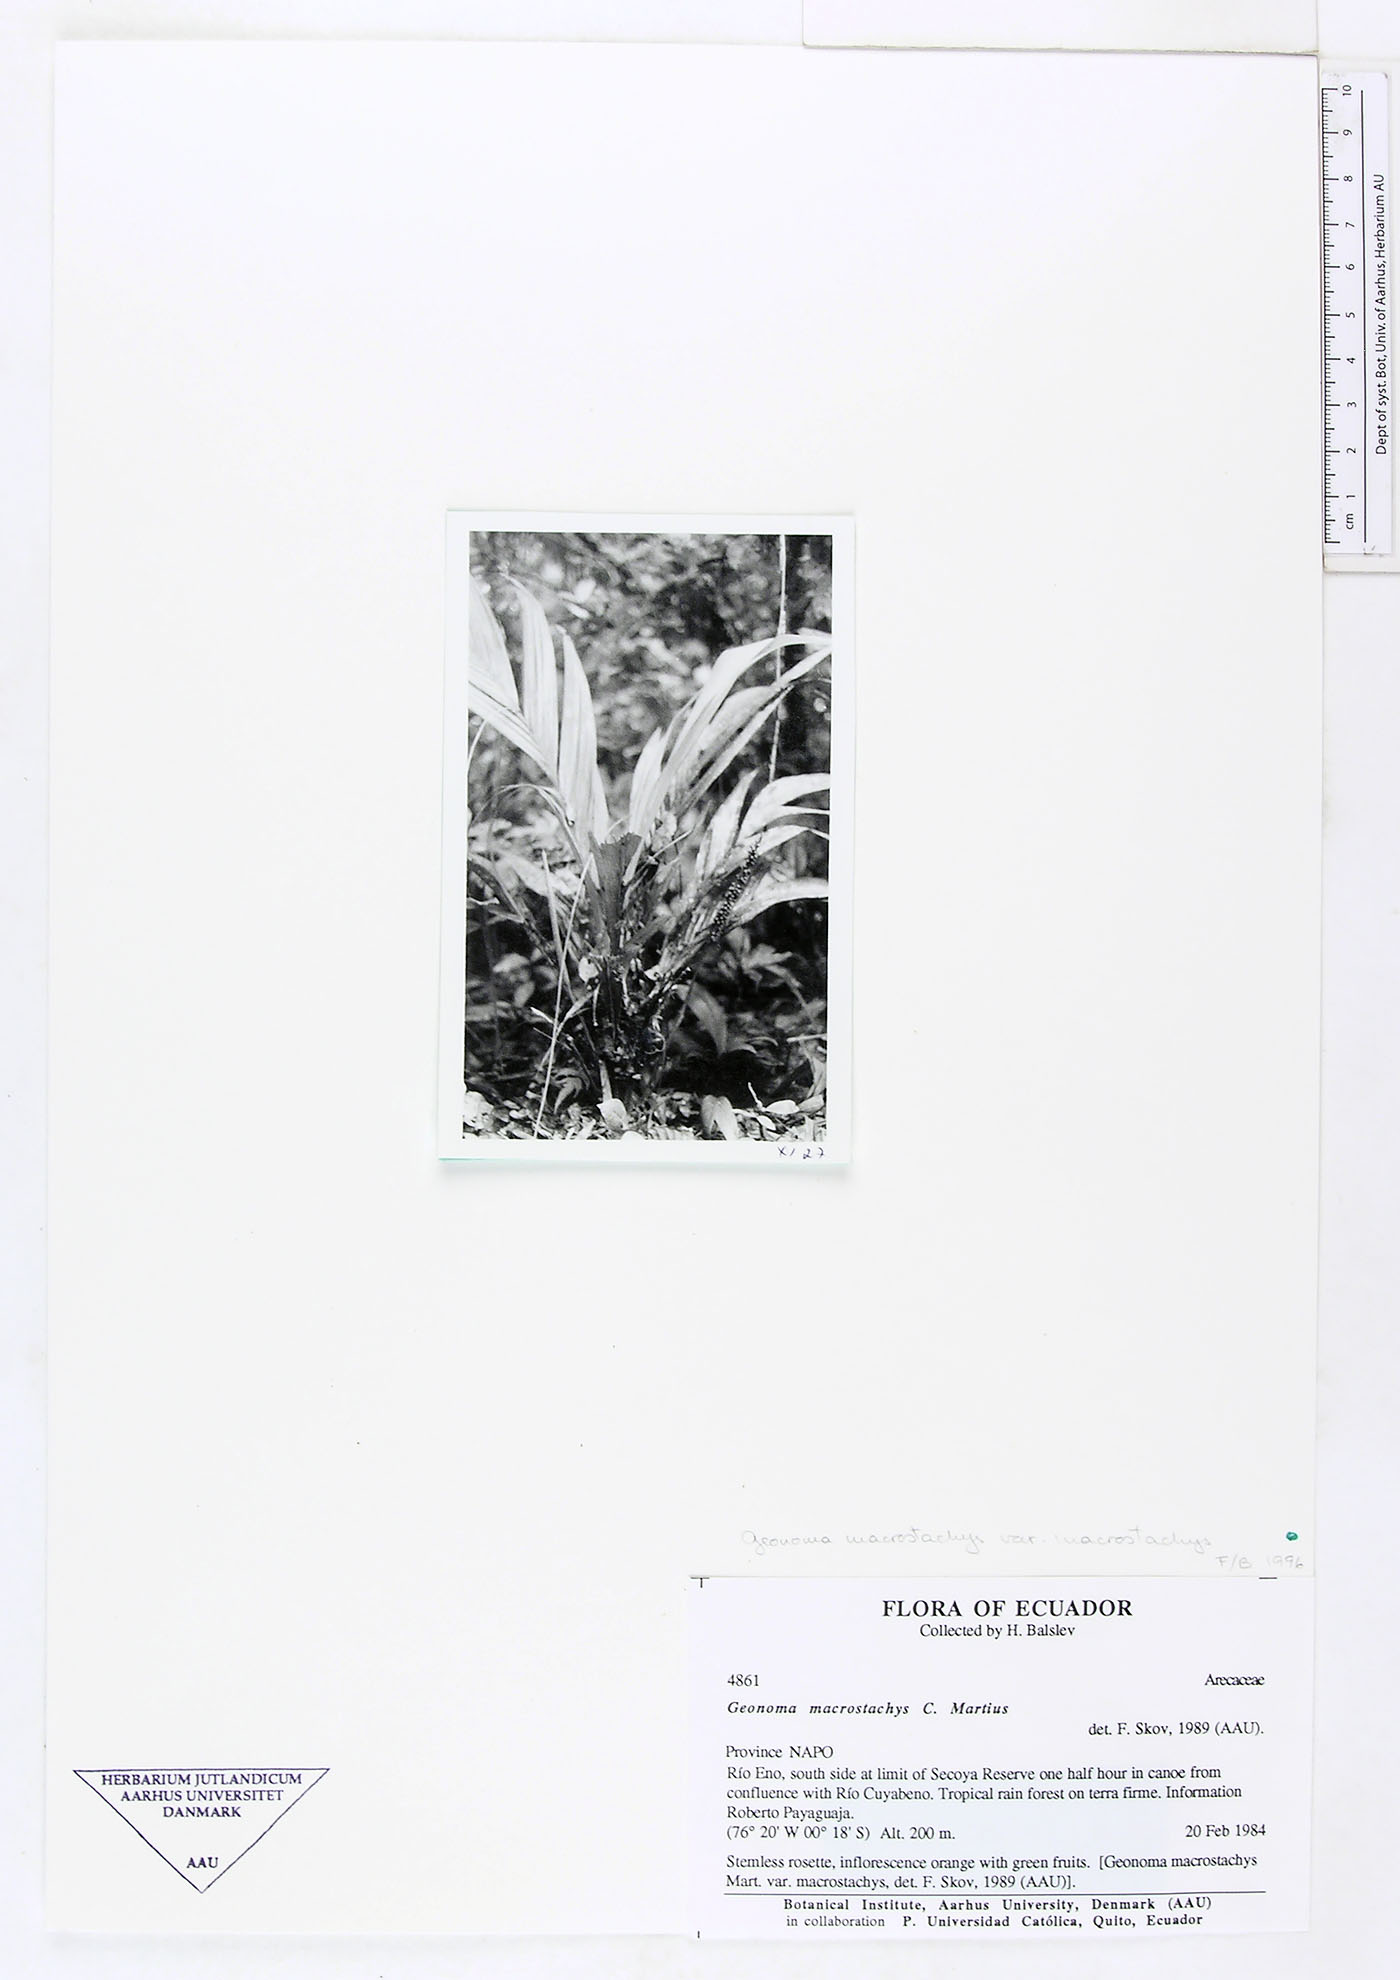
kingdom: Plantae
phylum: Tracheophyta
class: Liliopsida
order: Arecales
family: Arecaceae
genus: Geonoma
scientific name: Geonoma macrostachys
